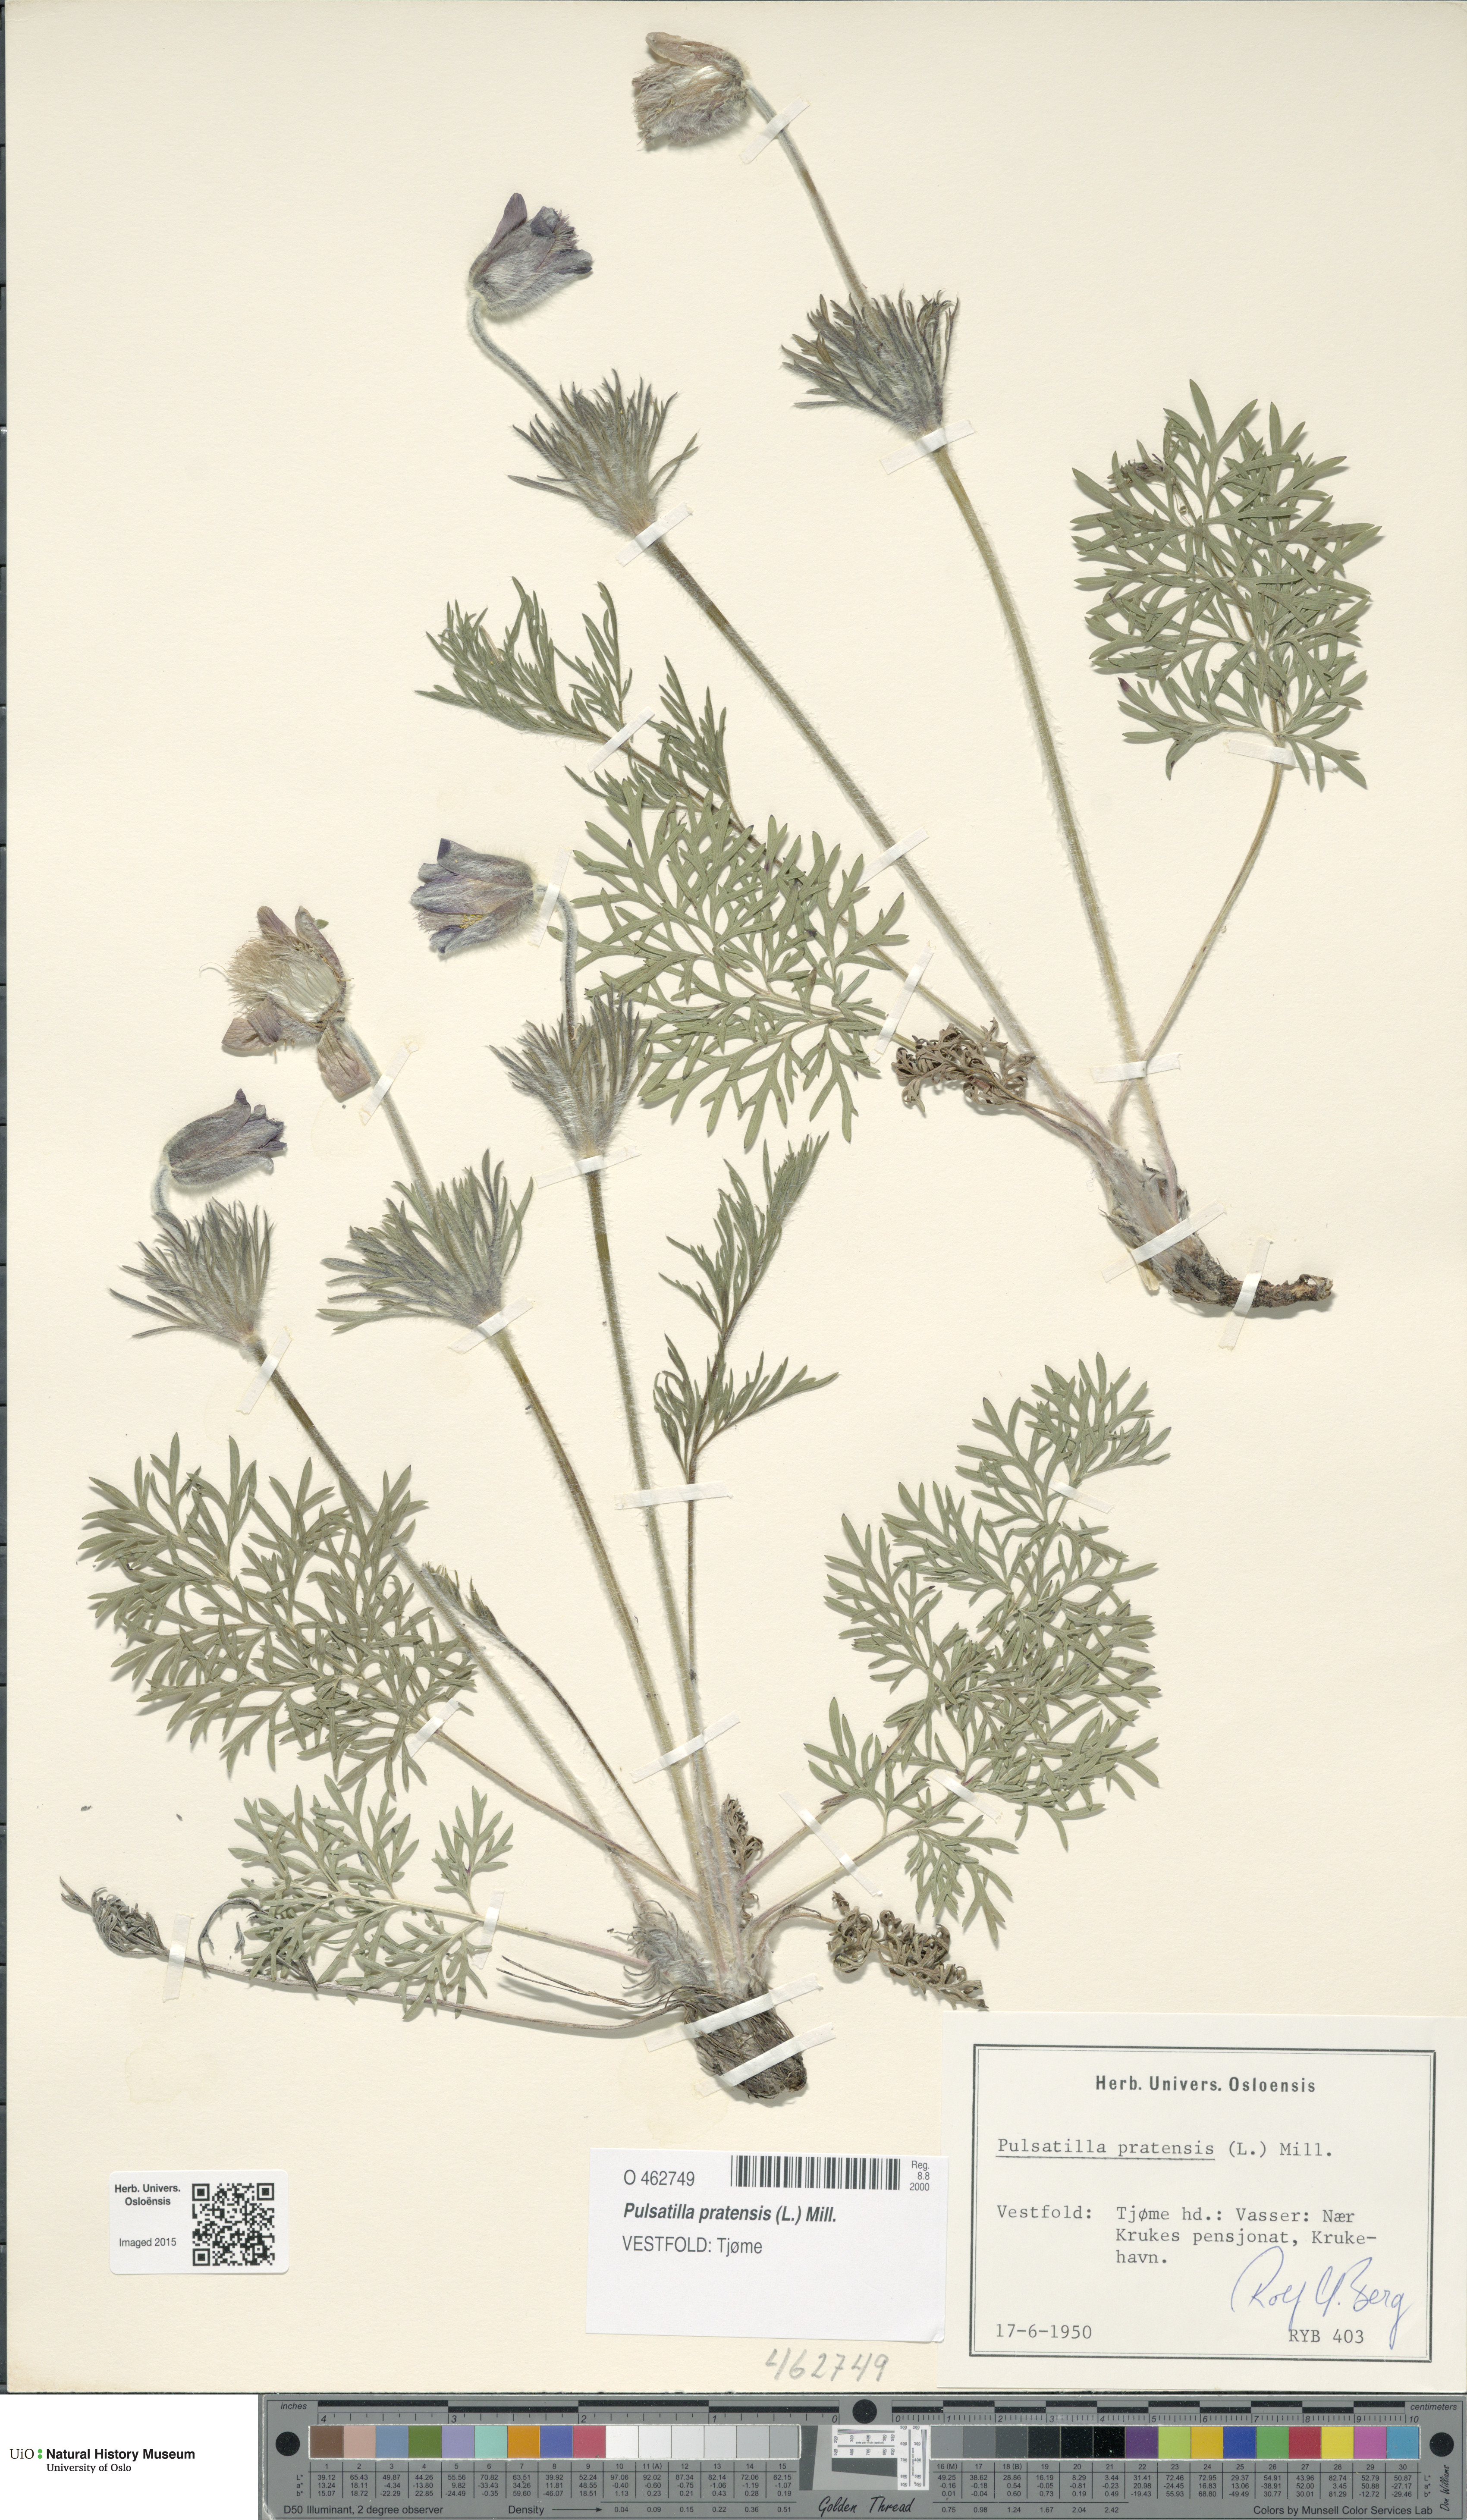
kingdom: Plantae
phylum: Tracheophyta
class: Magnoliopsida
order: Ranunculales
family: Ranunculaceae
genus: Pulsatilla
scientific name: Pulsatilla pratensis
